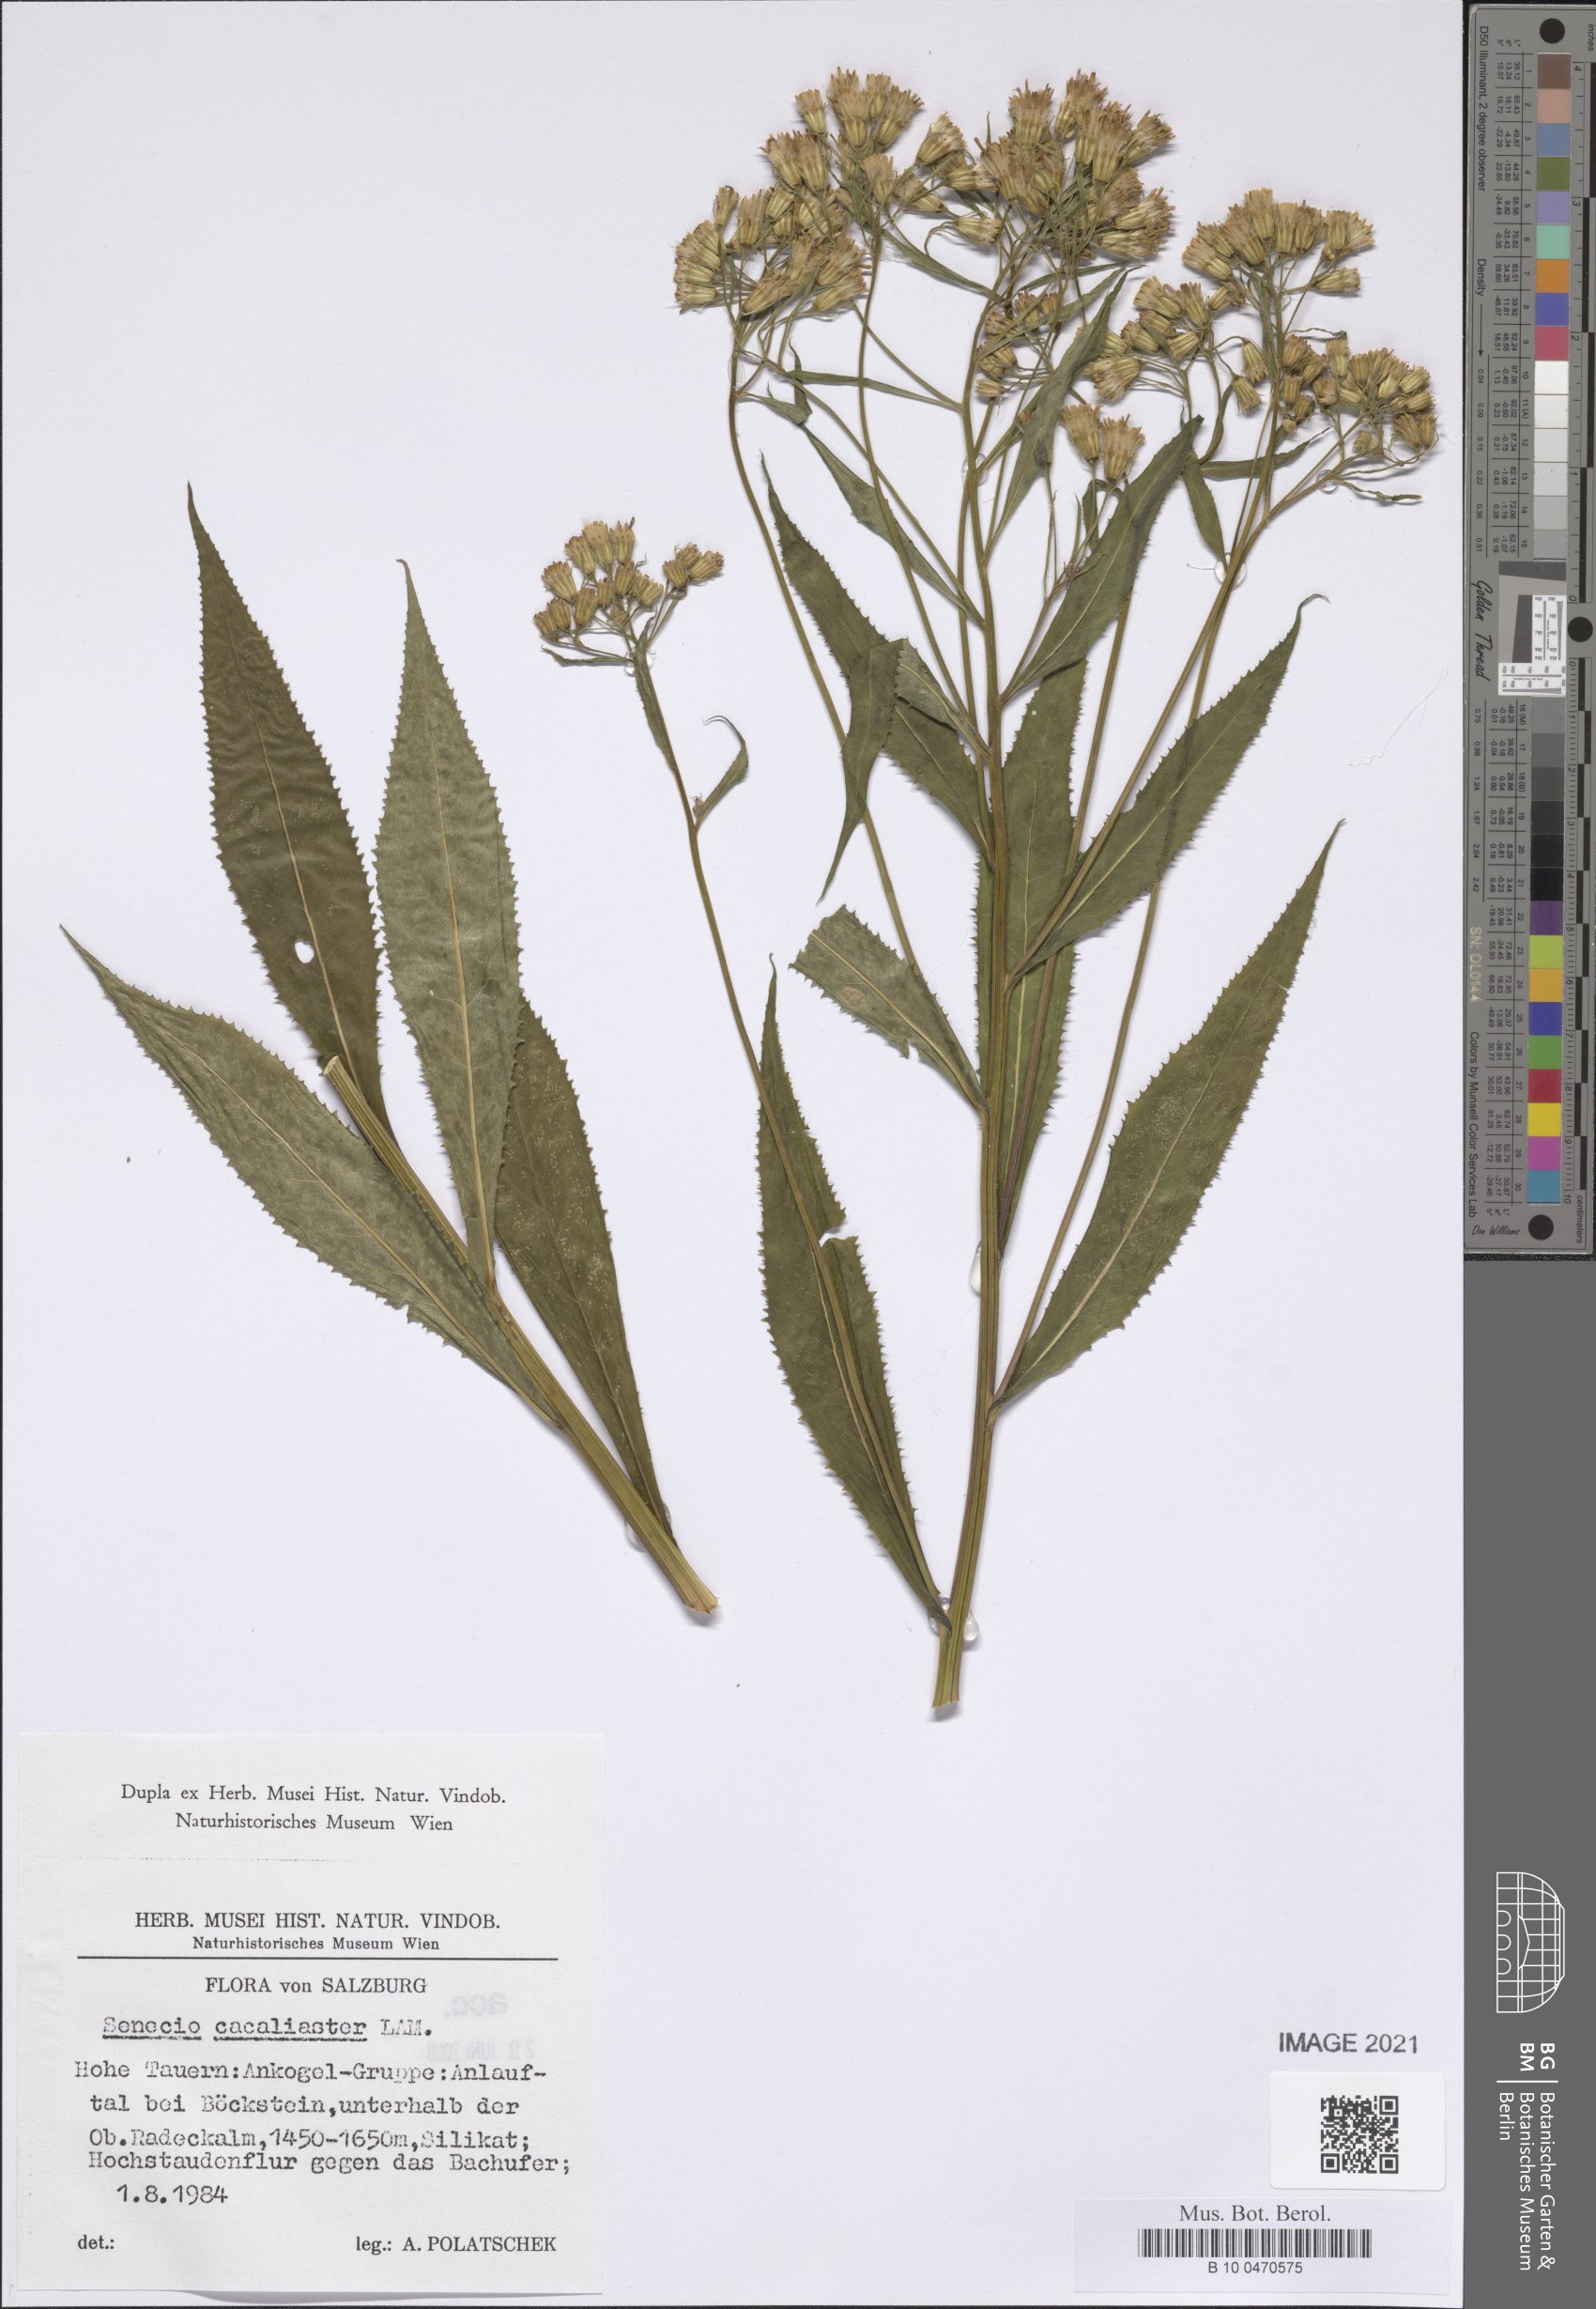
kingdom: Plantae
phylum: Tracheophyta
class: Magnoliopsida
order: Asterales
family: Asteraceae
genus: Senecio
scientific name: Senecio cacaliaster
